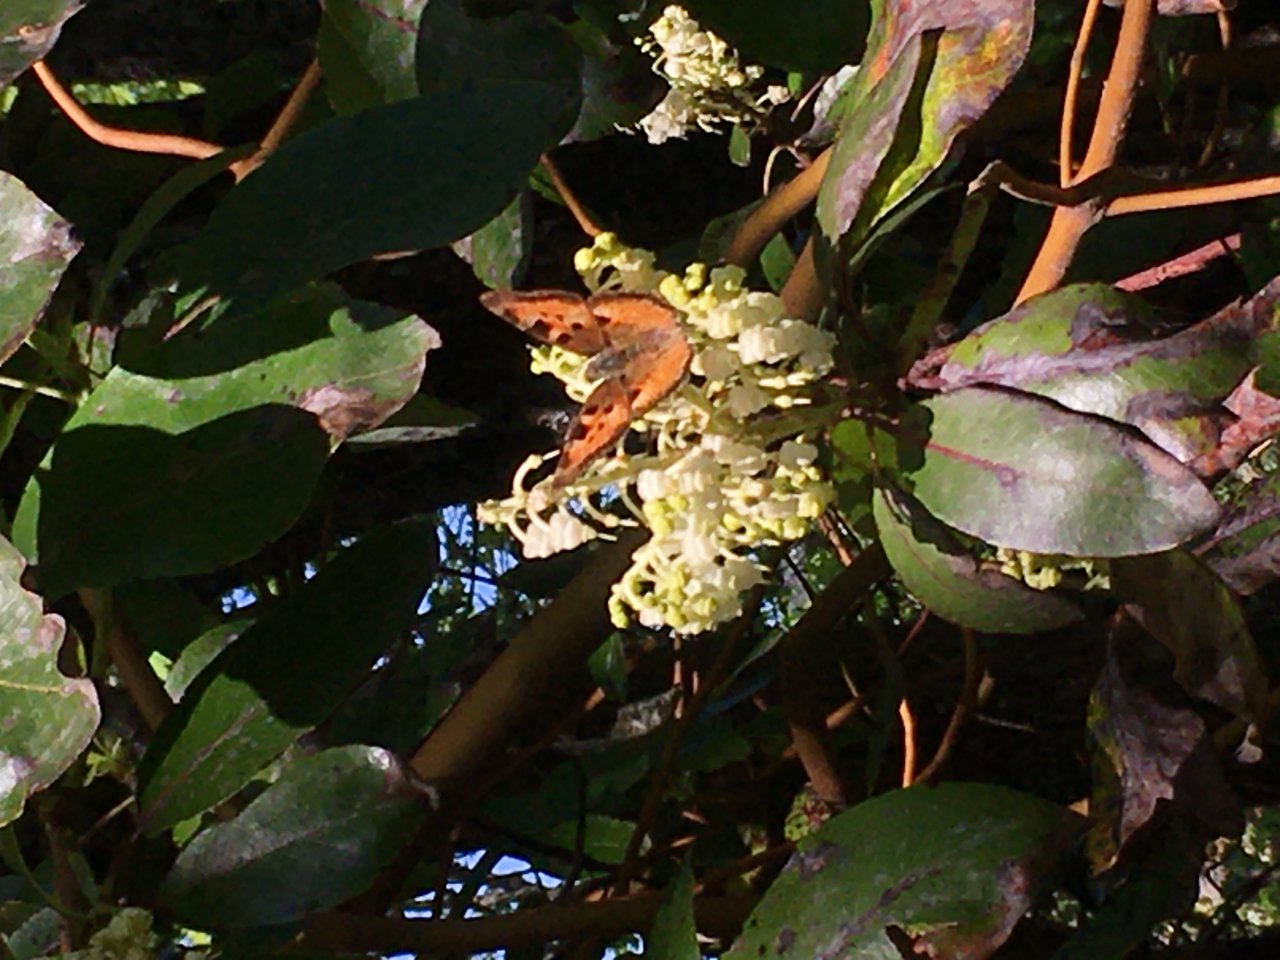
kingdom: Animalia
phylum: Arthropoda
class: Insecta
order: Lepidoptera
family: Nymphalidae
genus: Nymphalis
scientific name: Nymphalis californica
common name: California Tortoiseshell
